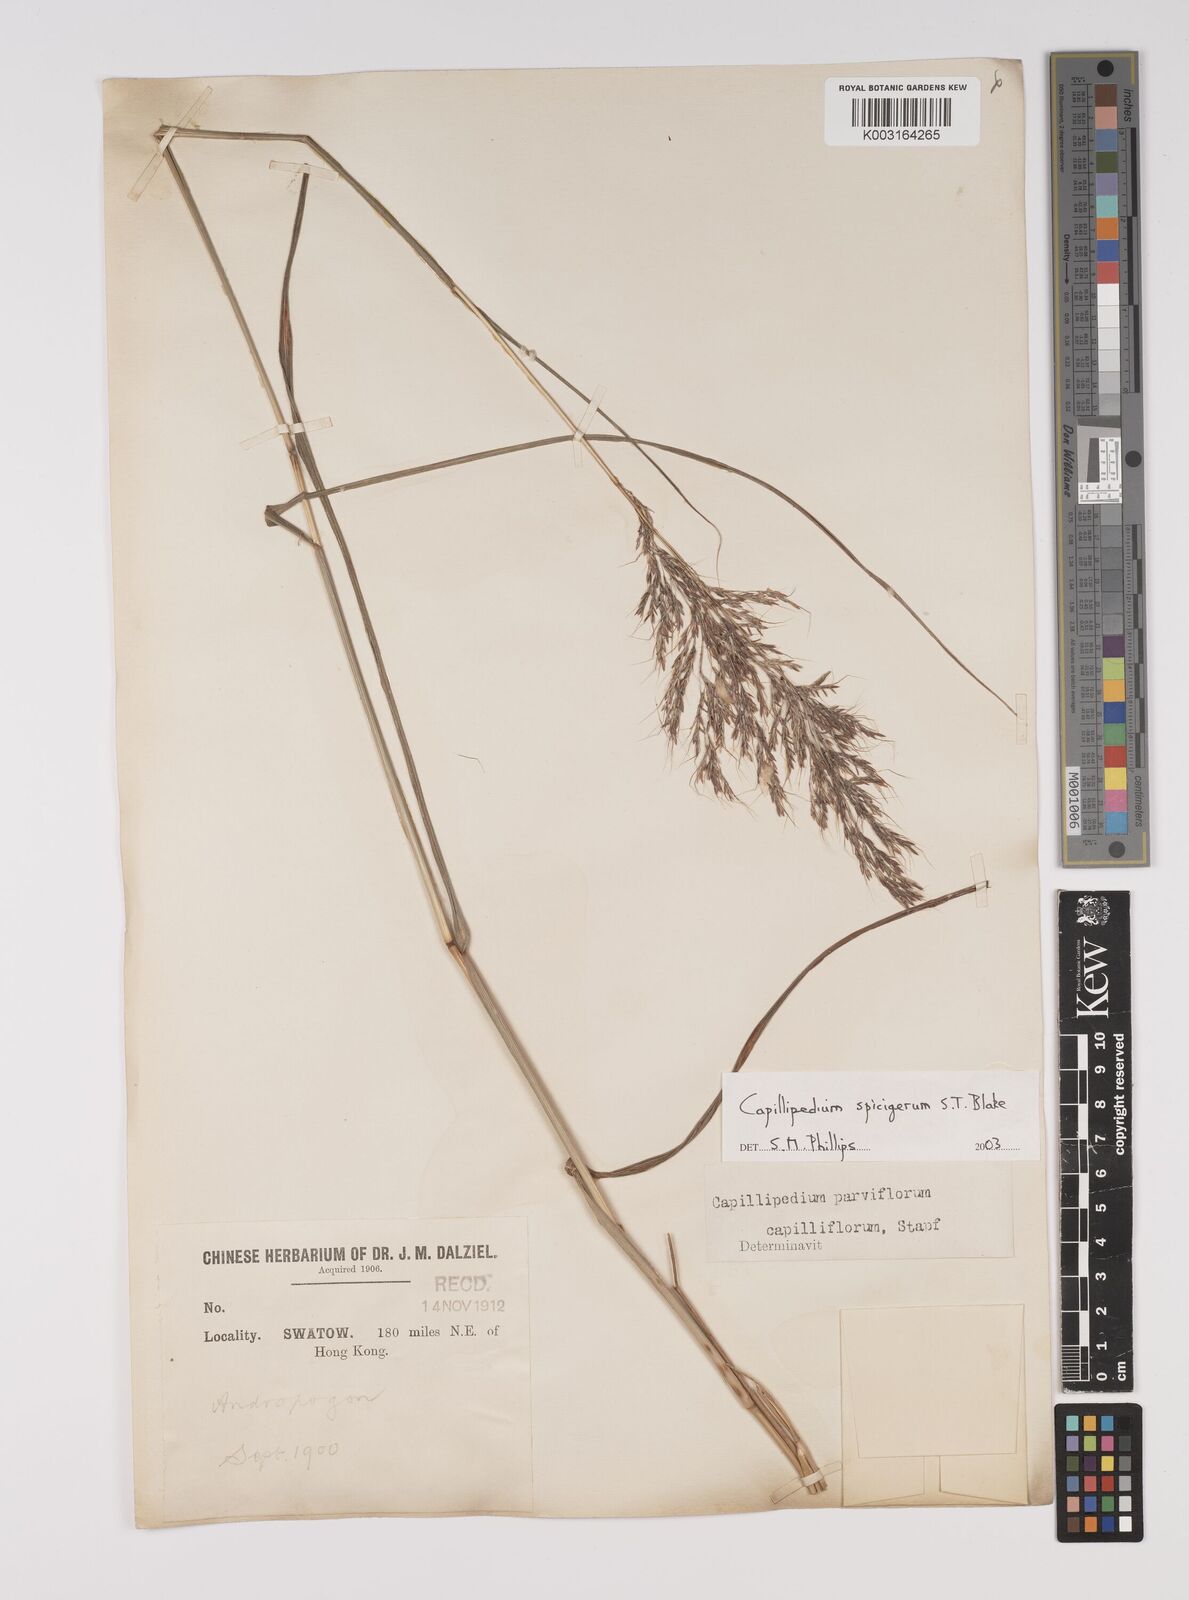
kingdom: Plantae
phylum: Tracheophyta
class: Liliopsida
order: Poales
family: Poaceae
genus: Capillipedium
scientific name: Capillipedium spicigerum
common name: Scented-top grass
